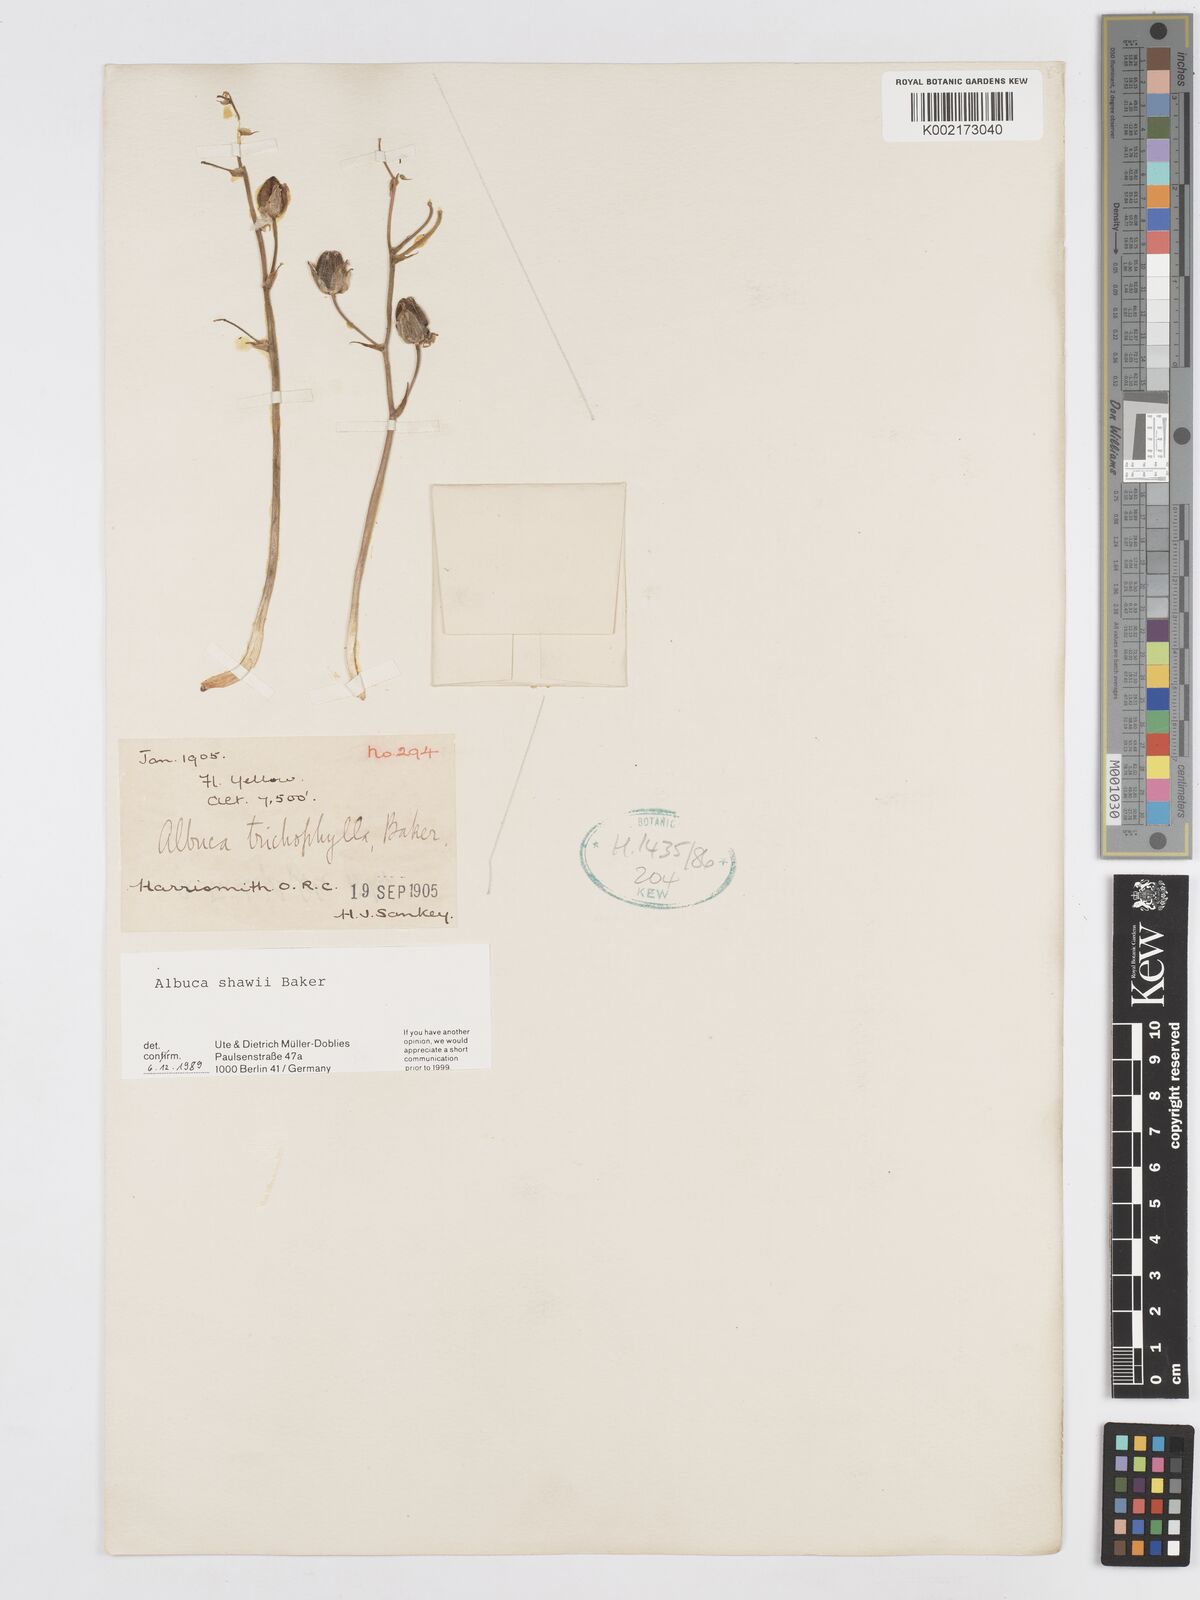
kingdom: Plantae
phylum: Tracheophyta
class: Liliopsida
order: Asparagales
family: Asparagaceae
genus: Albuca
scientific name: Albuca shawii
